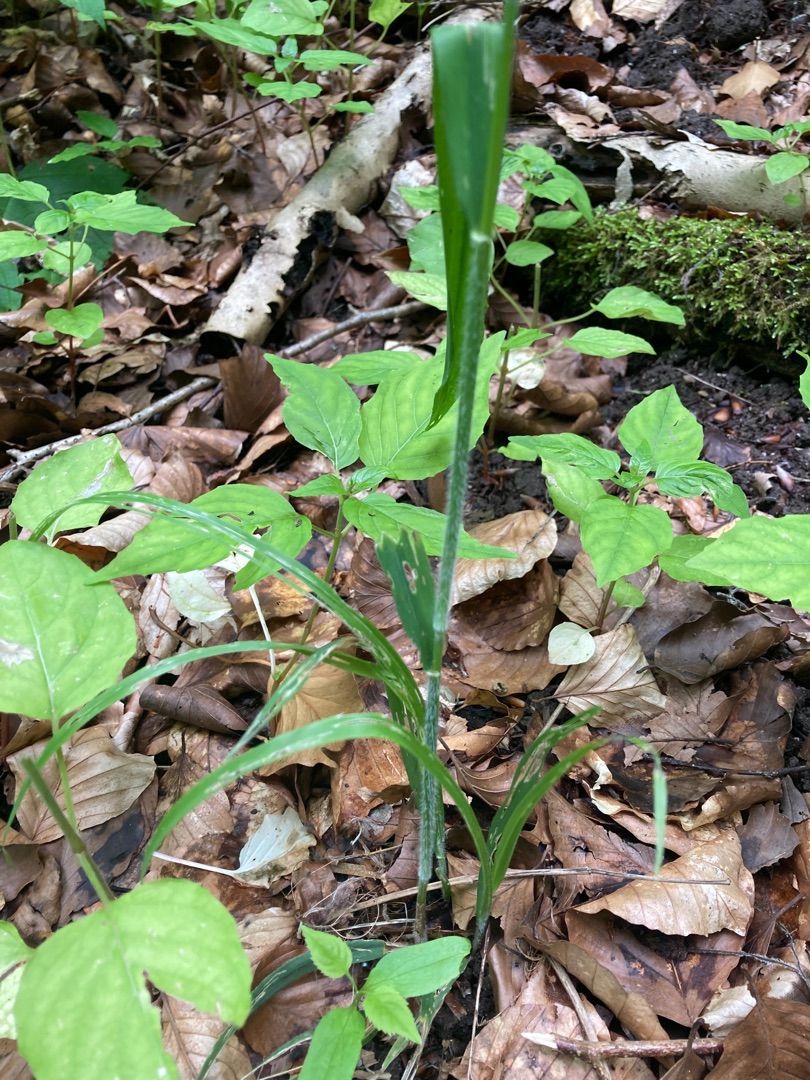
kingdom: Plantae
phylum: Tracheophyta
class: Liliopsida
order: Poales
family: Poaceae
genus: Hordelymus
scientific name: Hordelymus europaeus
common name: Skovbyg
